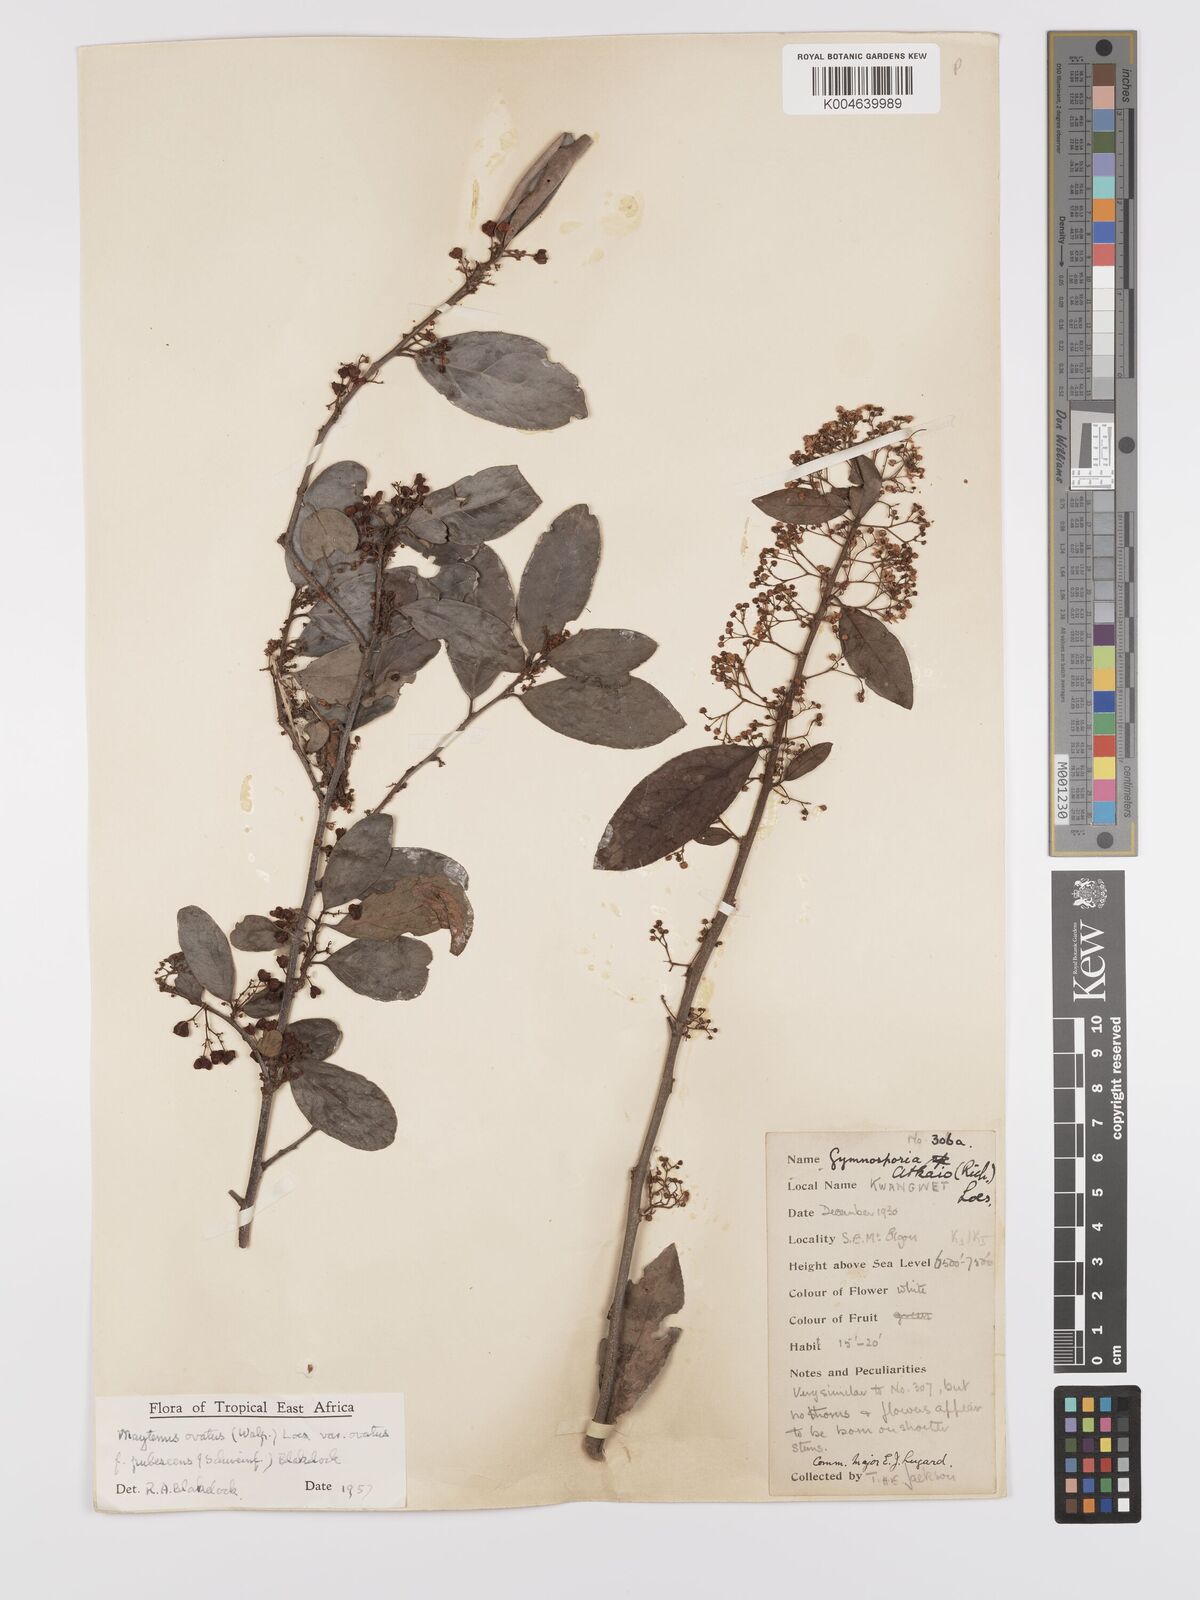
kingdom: Plantae
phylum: Tracheophyta
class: Magnoliopsida
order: Celastrales
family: Celastraceae
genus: Gymnosporia
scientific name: Gymnosporia arbutifolia
